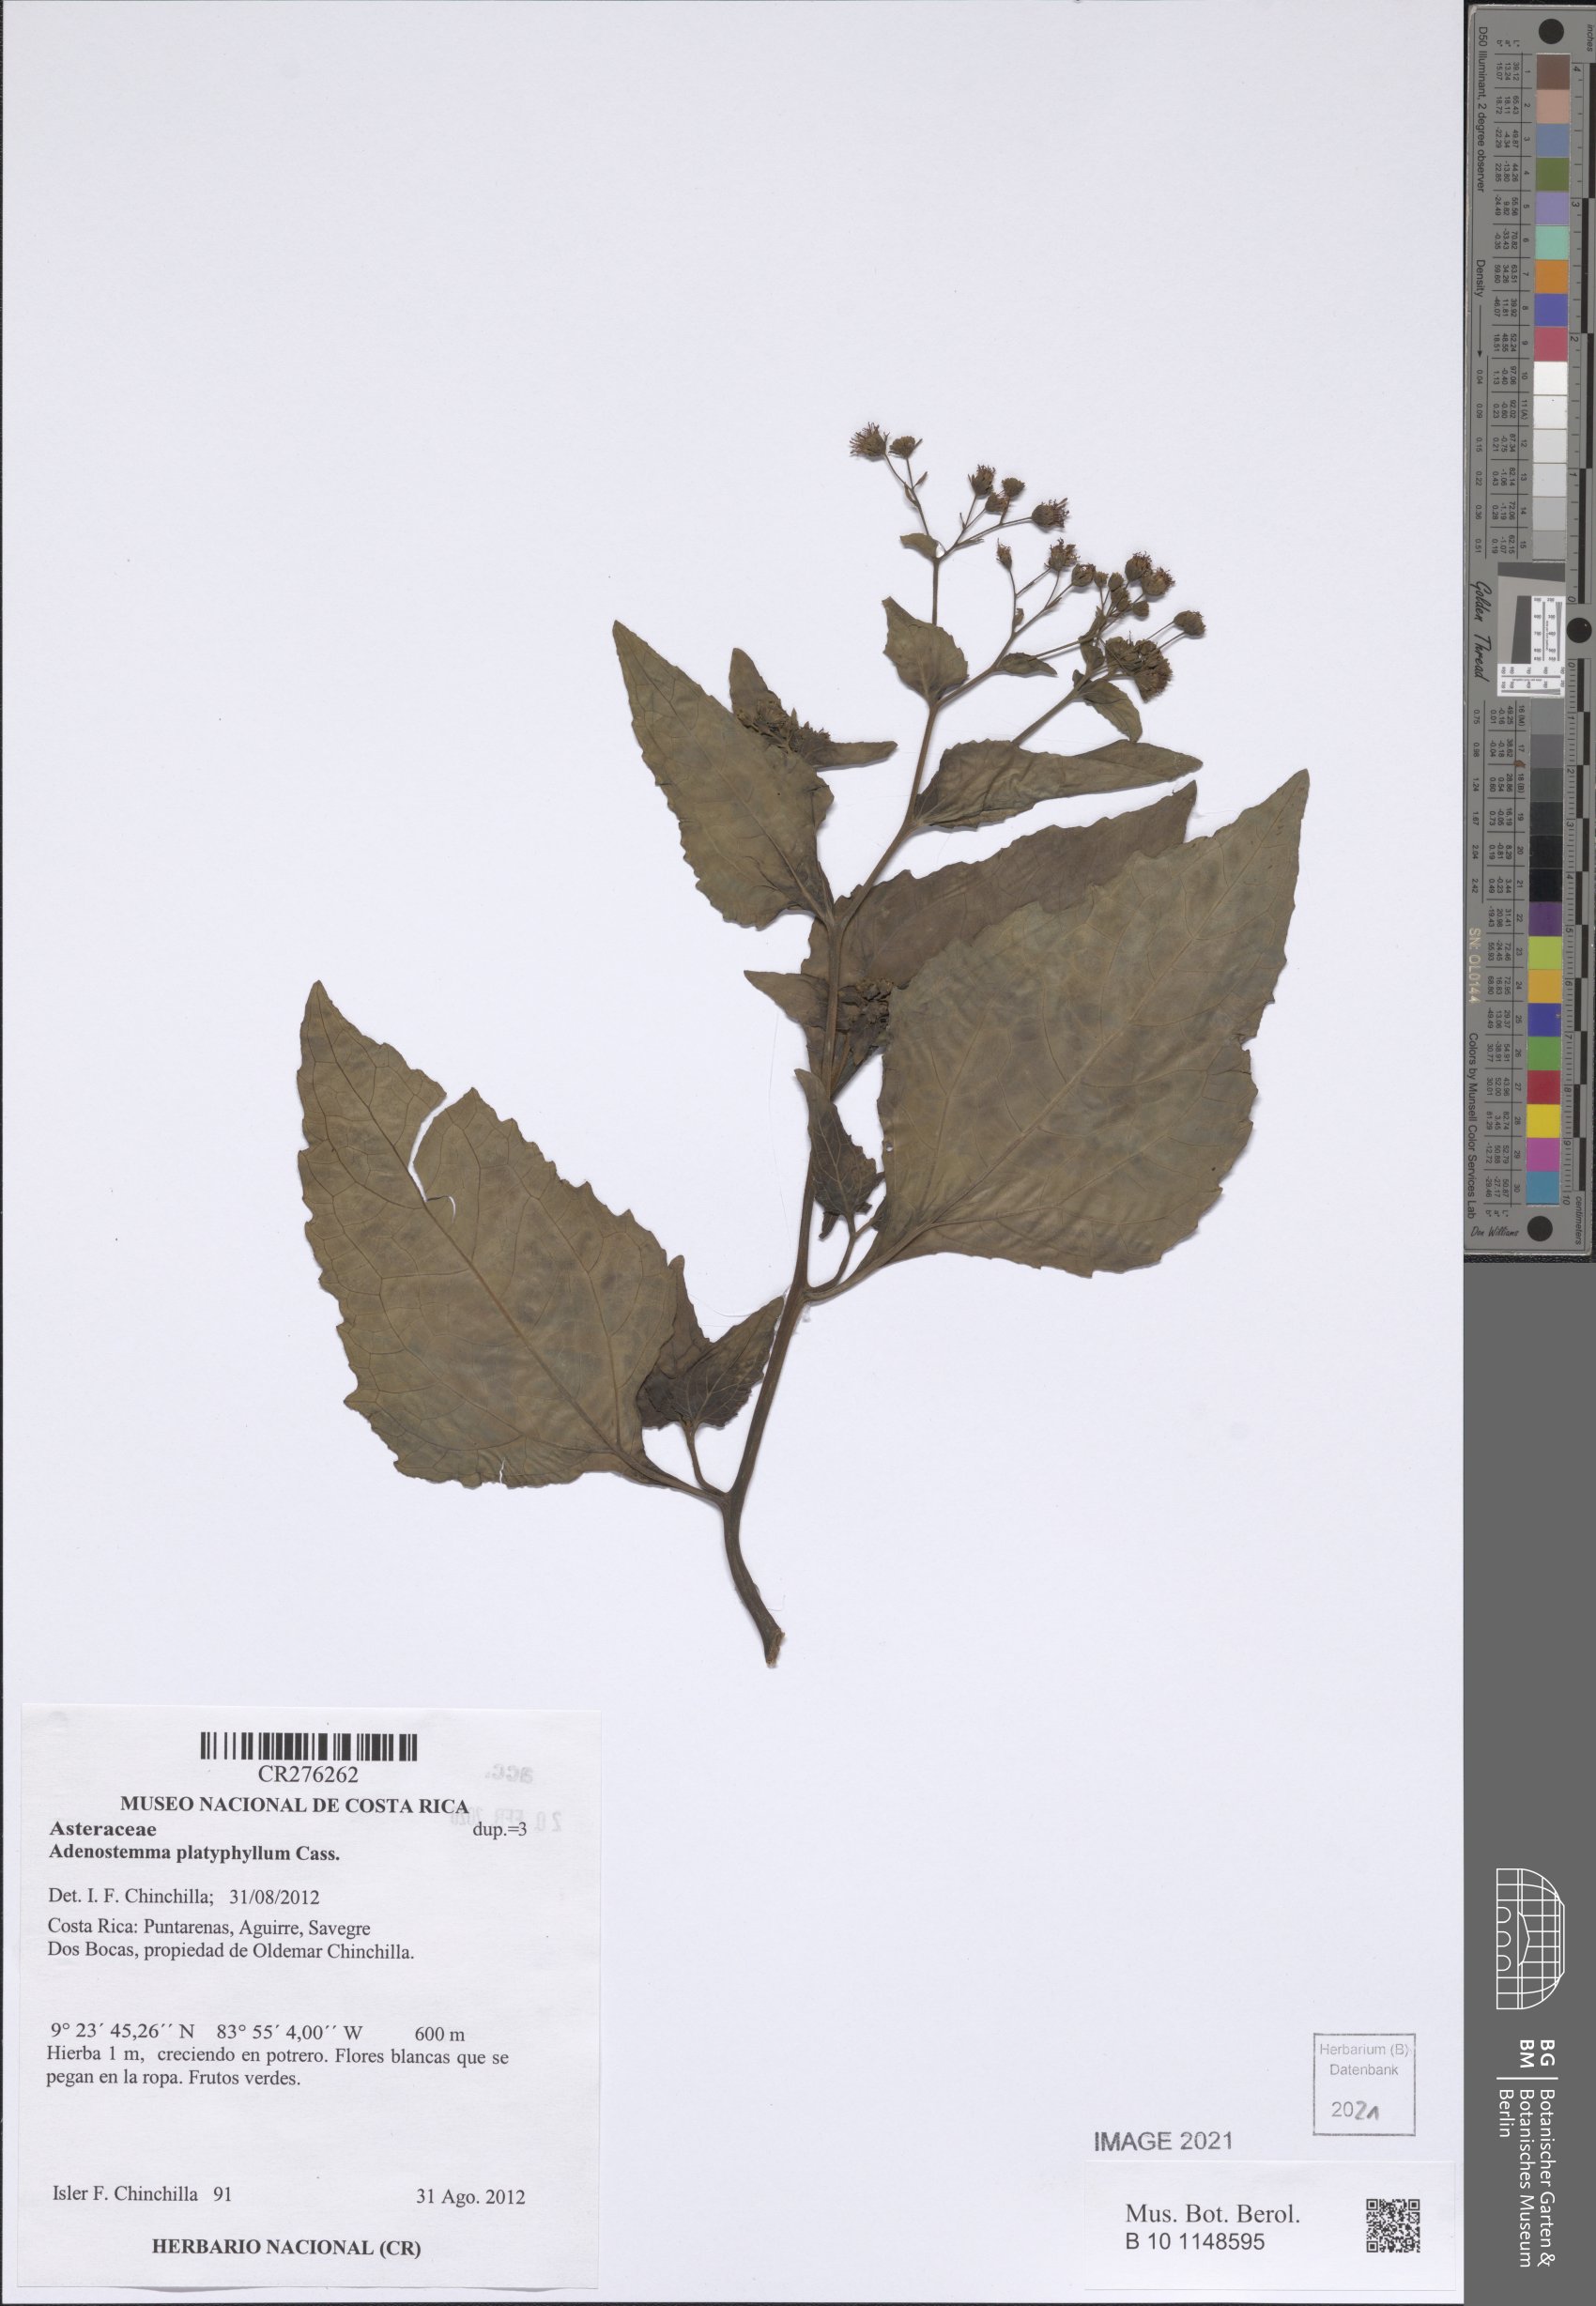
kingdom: Plantae
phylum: Tracheophyta
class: Magnoliopsida
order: Asterales
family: Asteraceae
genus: Adenostemma
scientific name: Adenostemma
